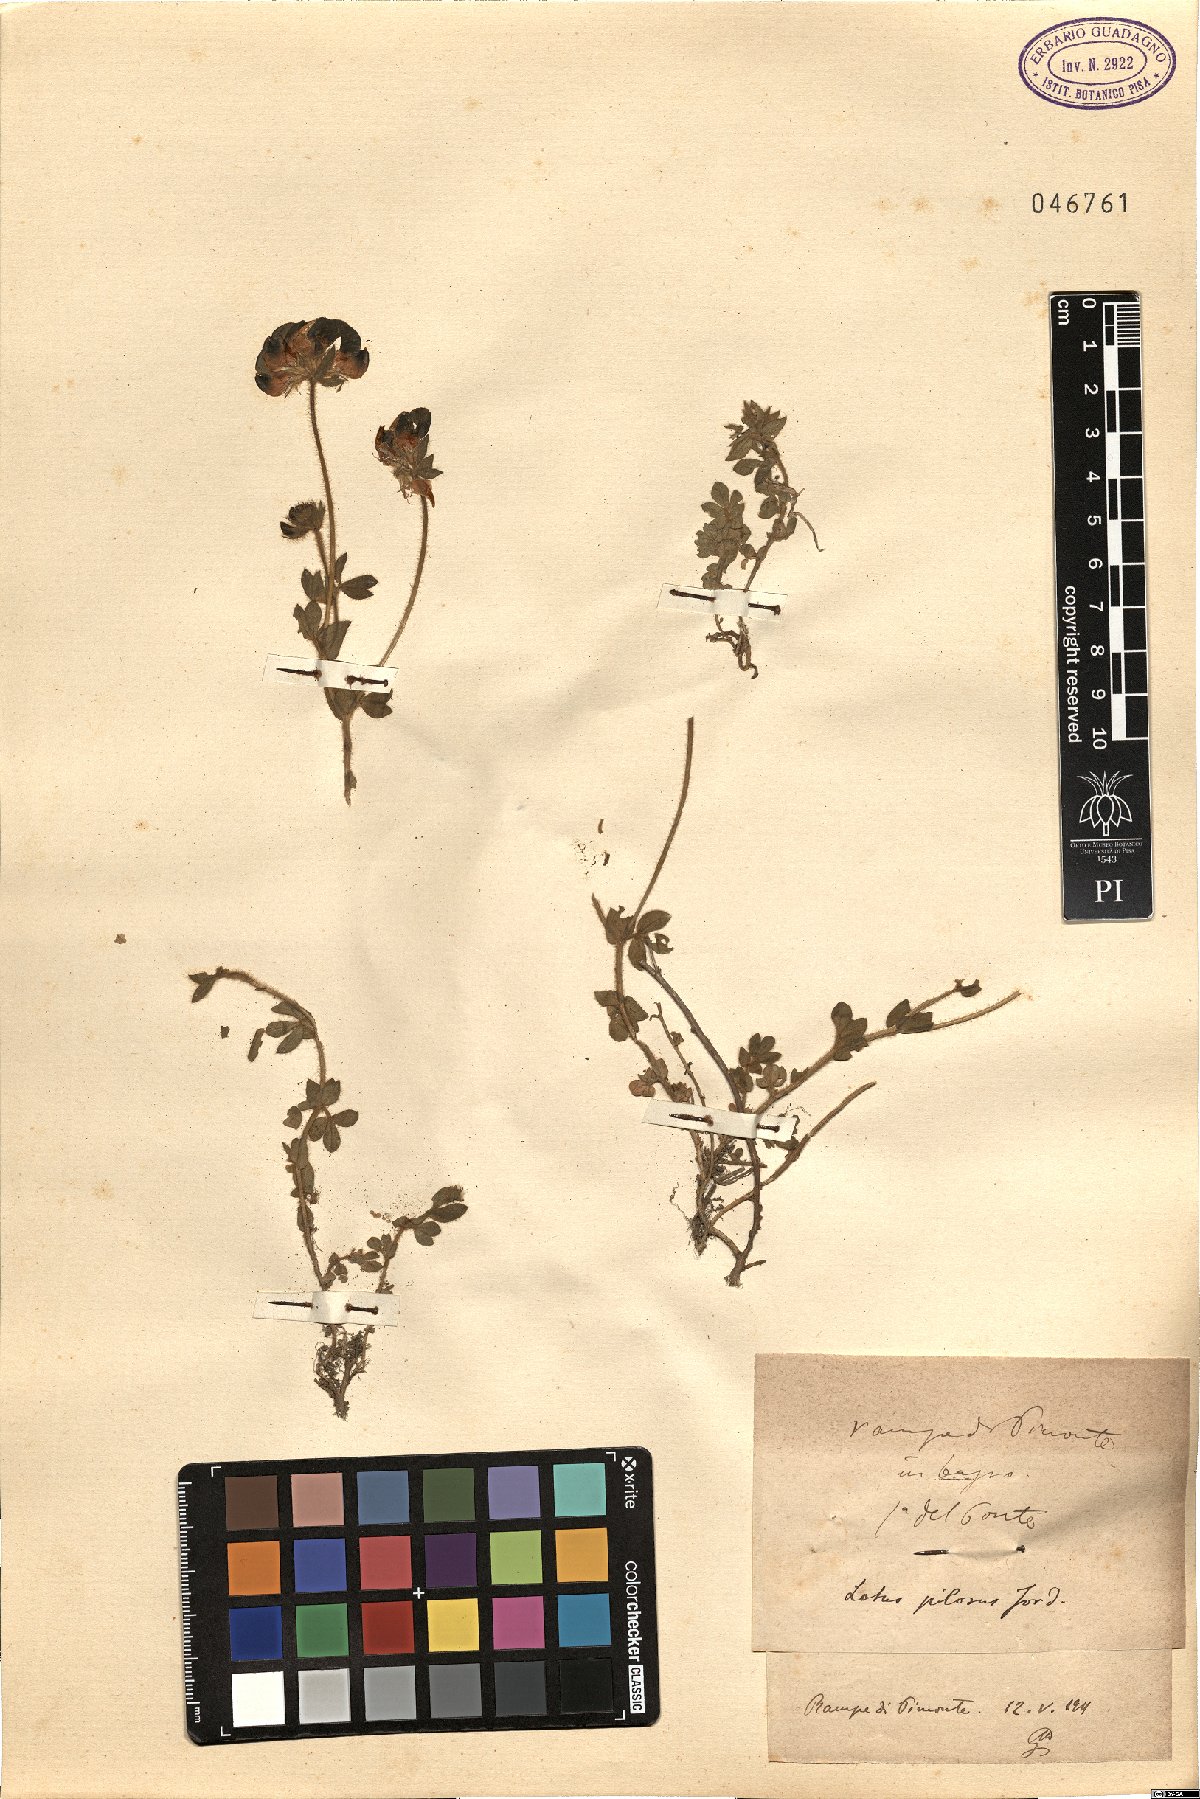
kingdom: Plantae
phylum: Tracheophyta
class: Magnoliopsida
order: Fabales
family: Fabaceae
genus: Lotus
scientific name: Lotus corniculatus
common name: Common bird's-foot-trefoil
